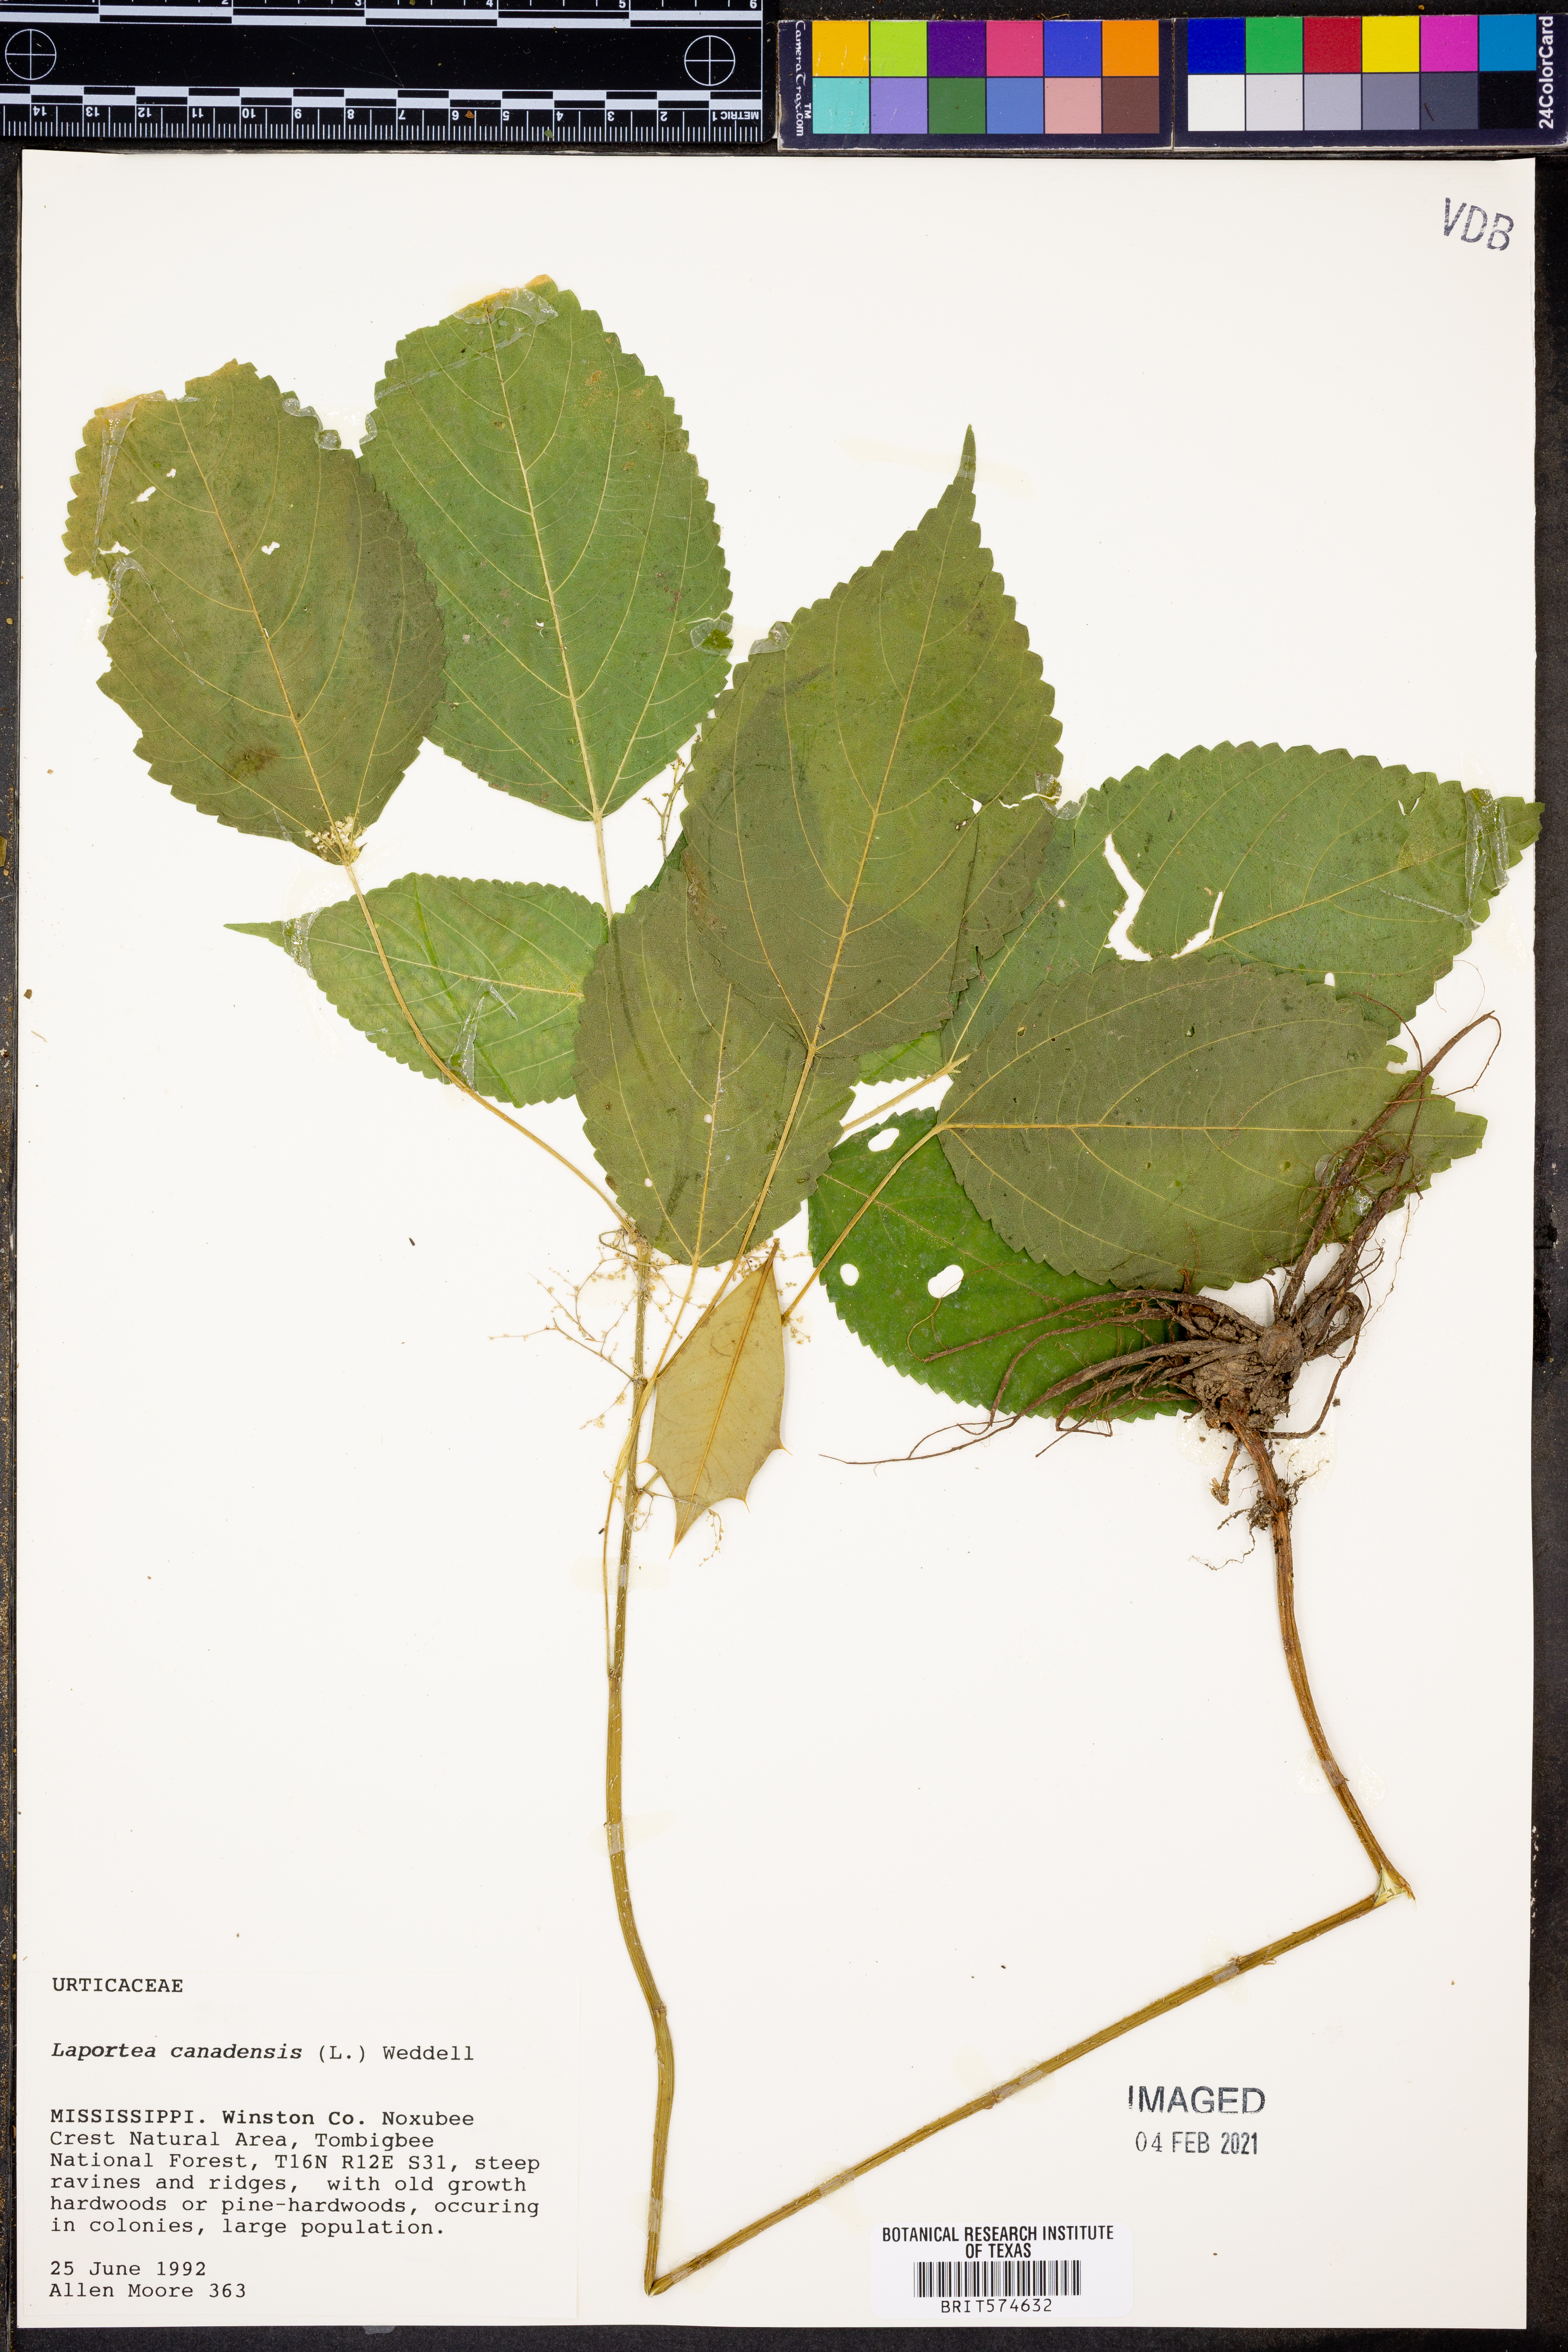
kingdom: Plantae
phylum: Tracheophyta
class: Magnoliopsida
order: Rosales
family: Urticaceae
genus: Laportea
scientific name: Laportea canadensis
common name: Canada nettle
